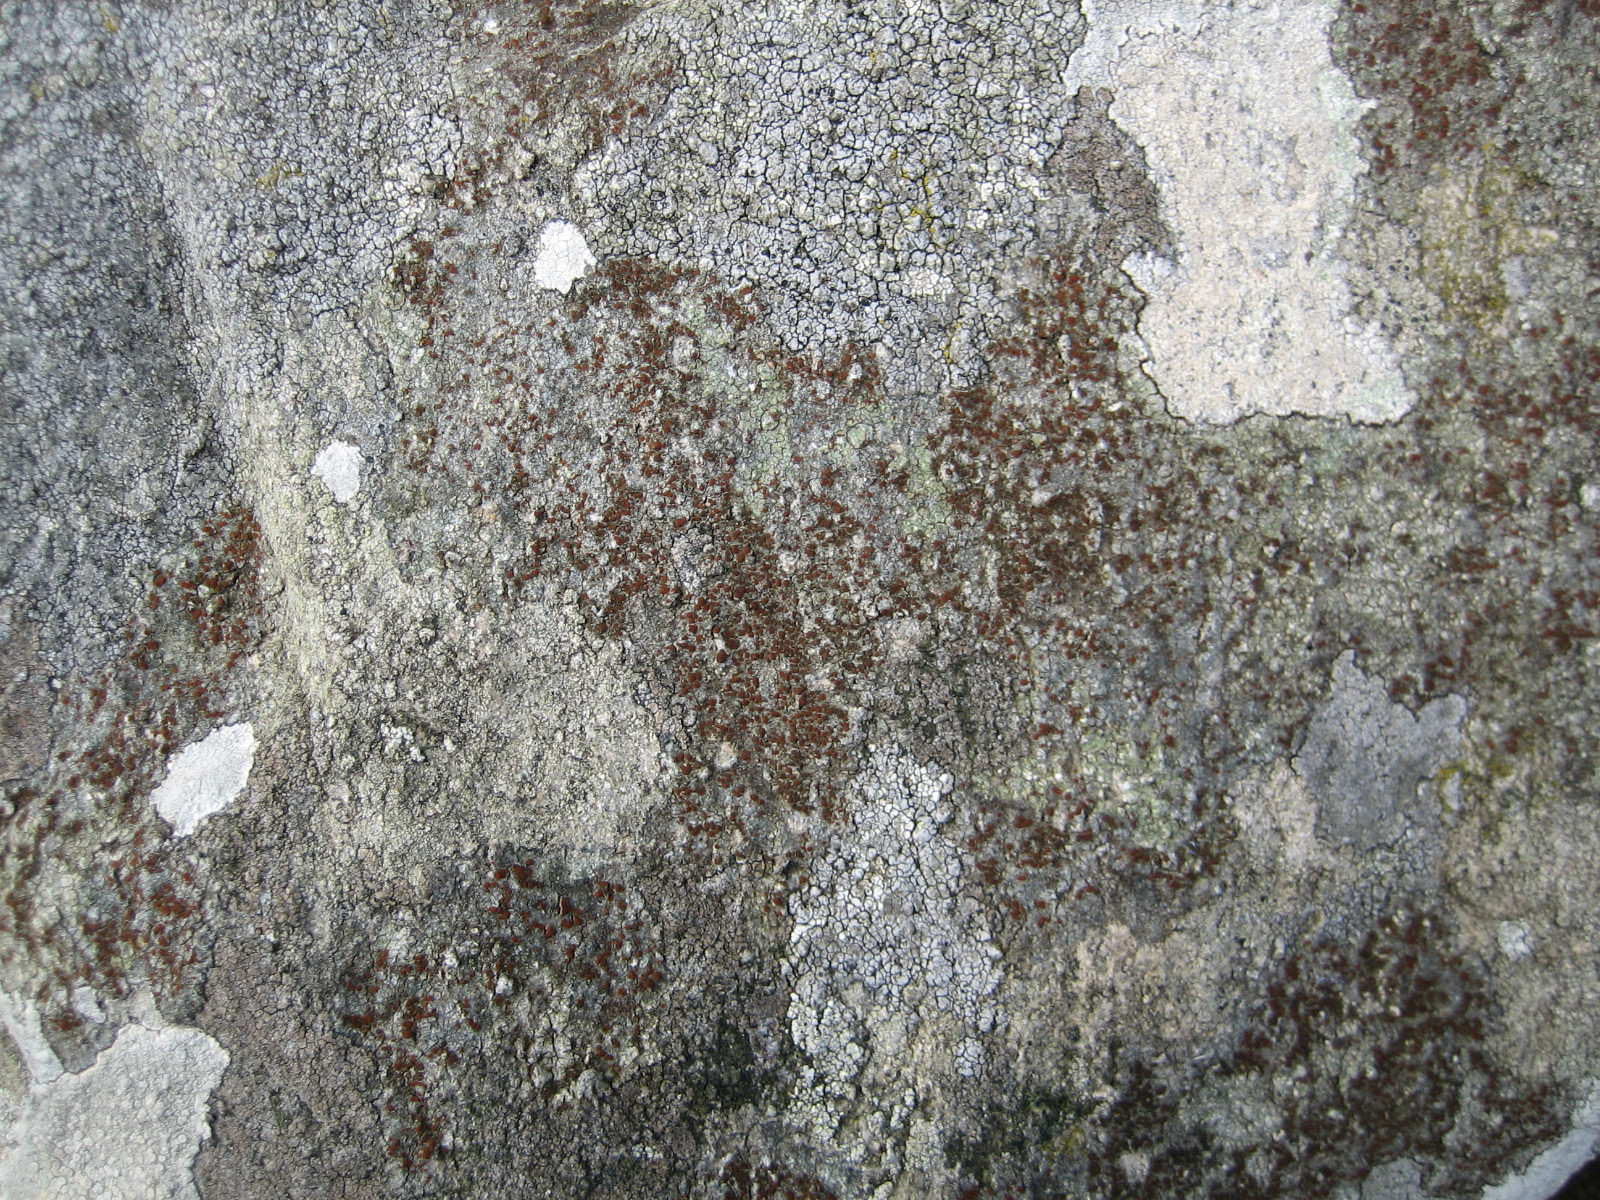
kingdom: Fungi
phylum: Ascomycota
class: Lecanoromycetes
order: Teloschistales
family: Teloschistaceae
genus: Blastenia
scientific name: Blastenia crenularia
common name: pyntelig orangelav
